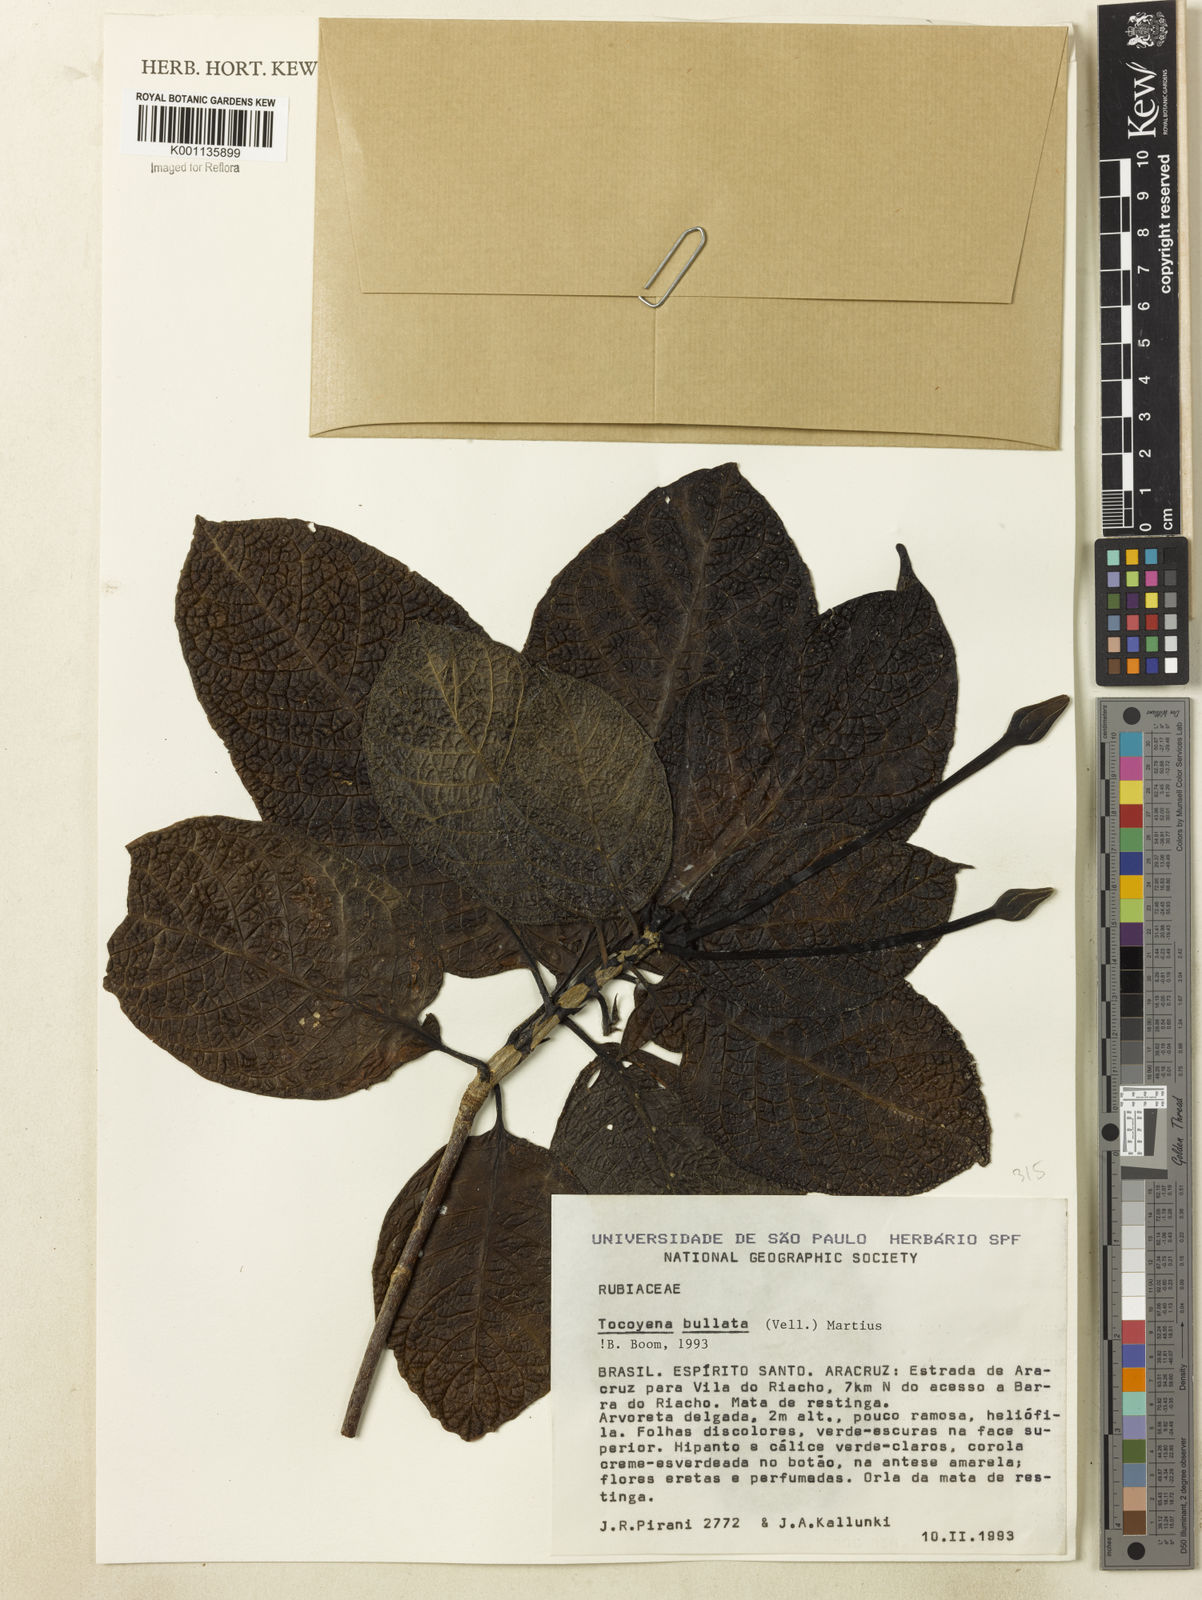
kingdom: Plantae
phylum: Tracheophyta
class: Magnoliopsida
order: Gentianales
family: Rubiaceae
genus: Tocoyena
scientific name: Tocoyena bullata
